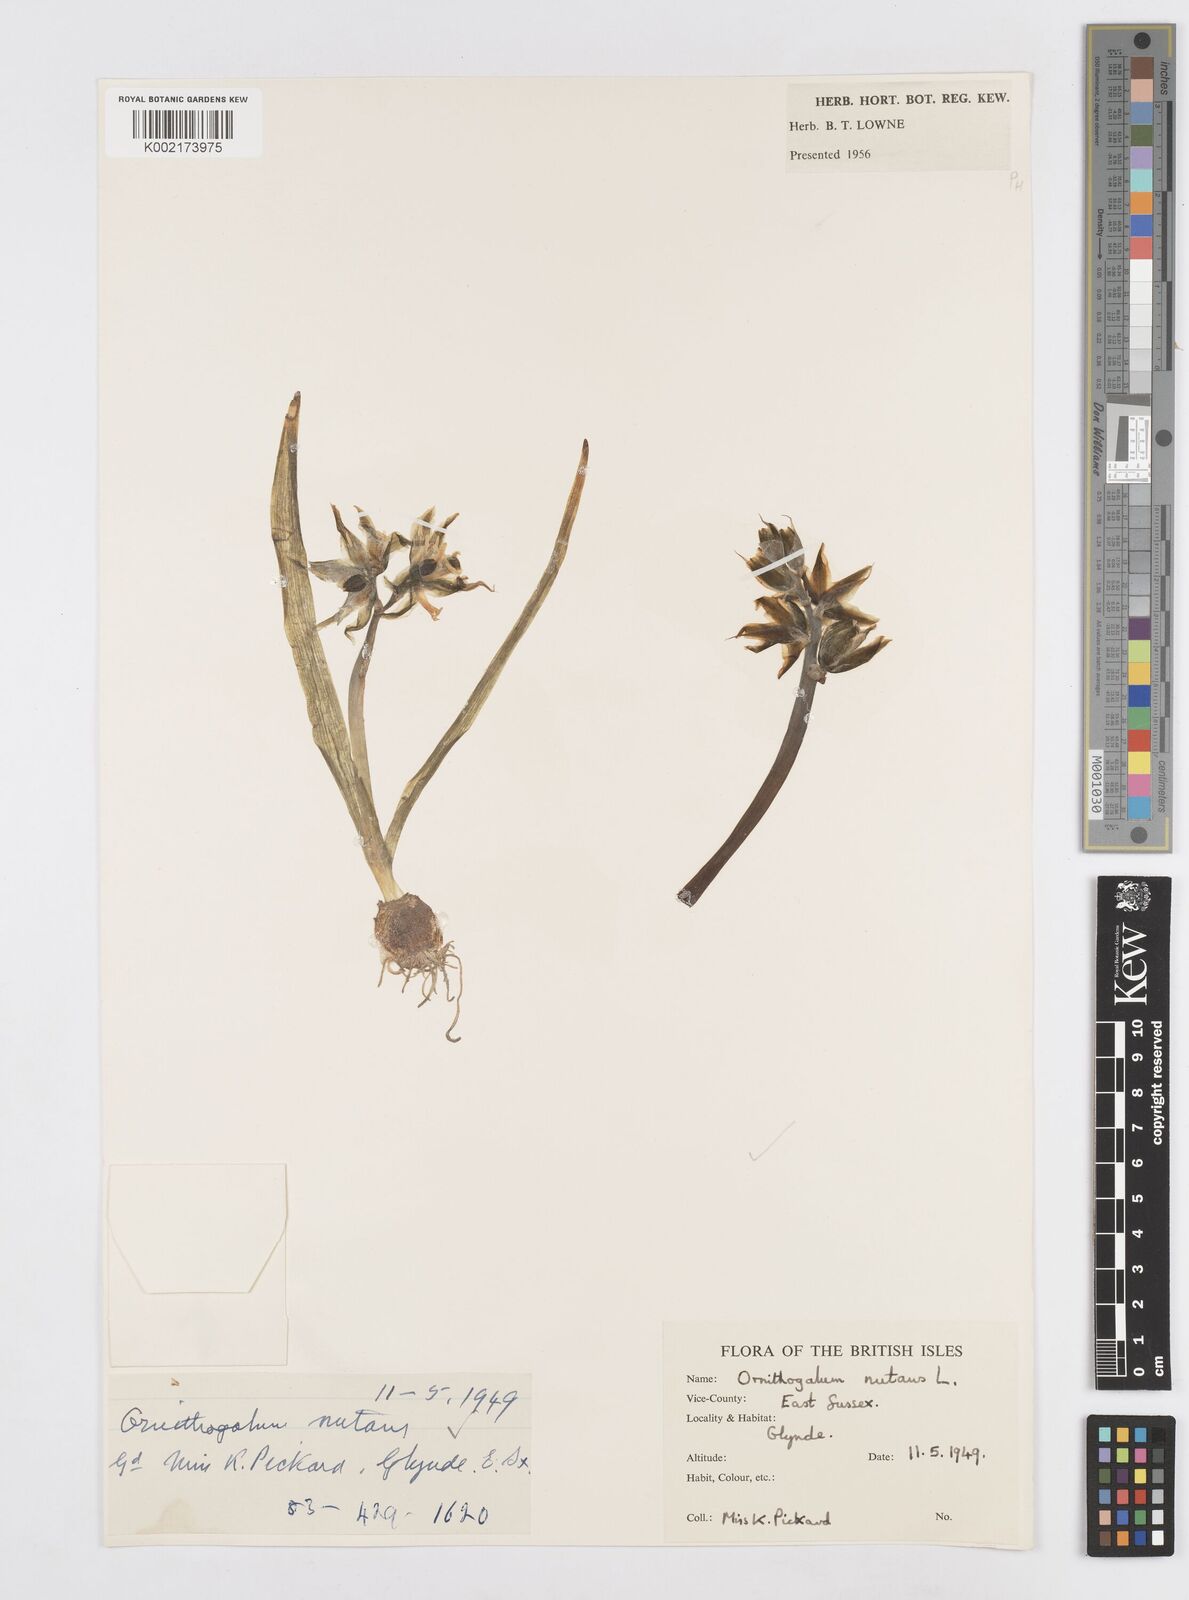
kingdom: Plantae
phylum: Tracheophyta
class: Liliopsida
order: Asparagales
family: Asparagaceae
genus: Ornithogalum
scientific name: Ornithogalum nutans
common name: Drooping star-of-bethlehem
